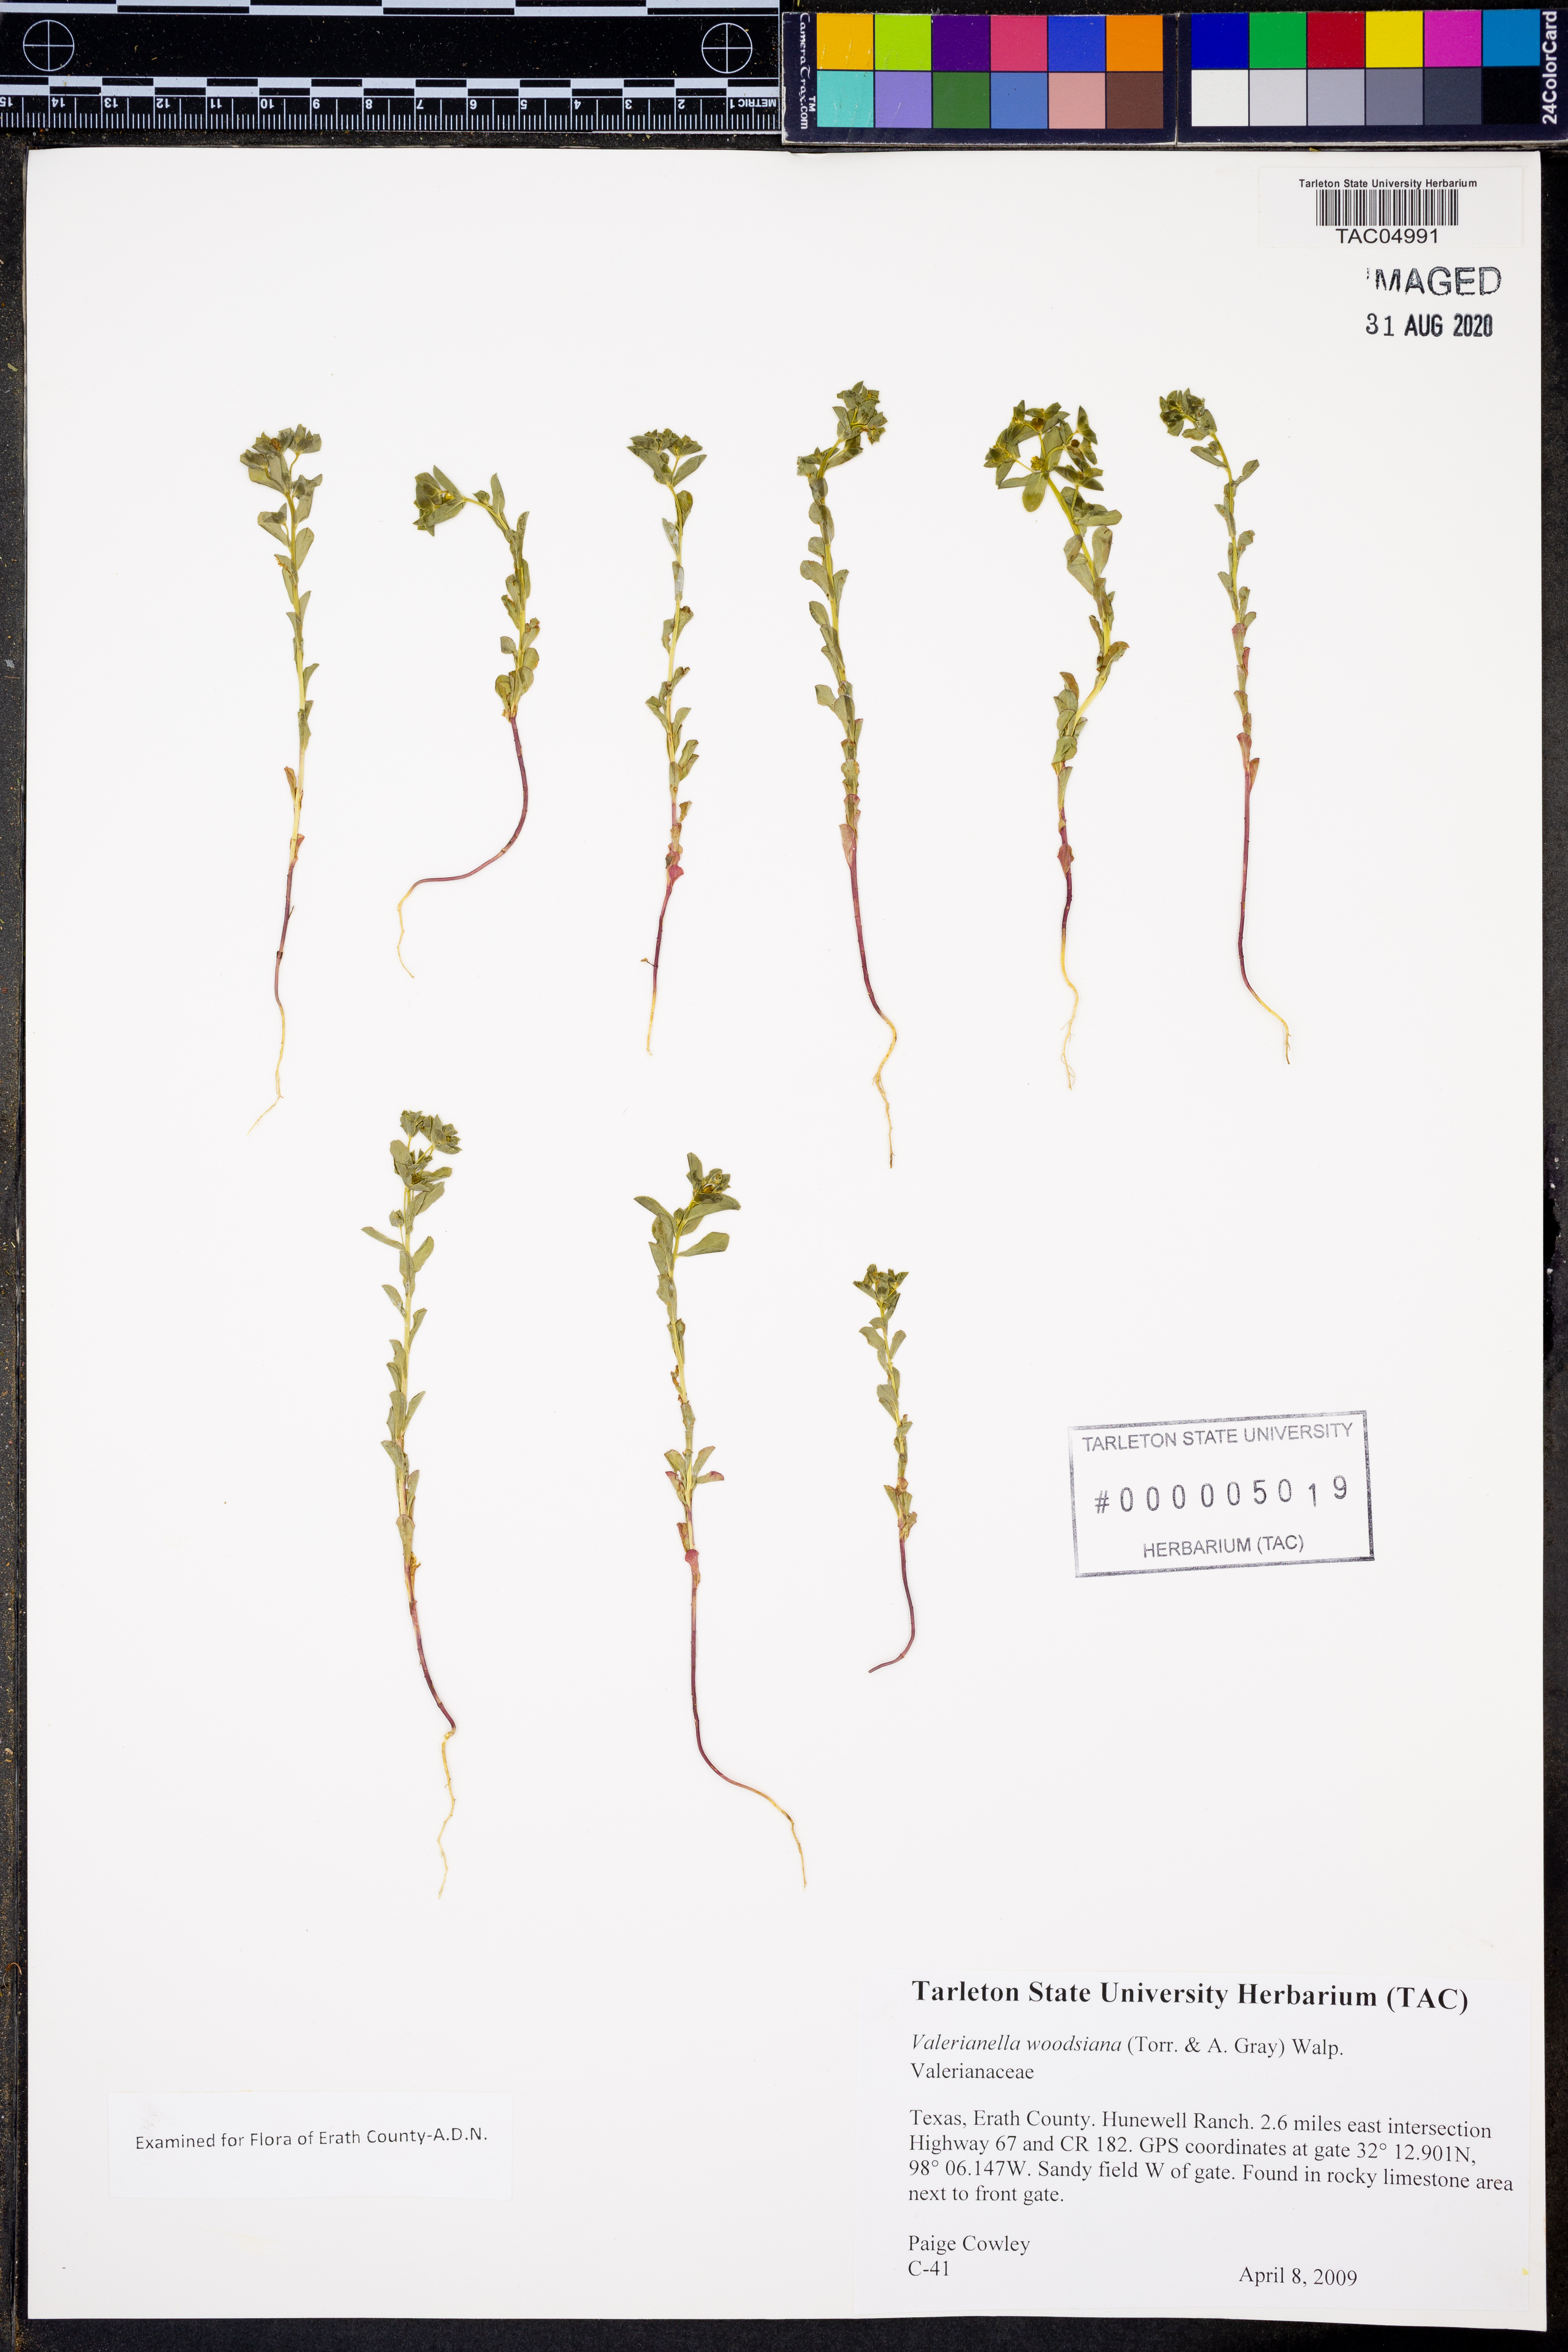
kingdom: Plantae
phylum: Tracheophyta
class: Magnoliopsida
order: Dipsacales
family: Caprifoliaceae
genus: Valerianella
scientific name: Valerianella radiata
